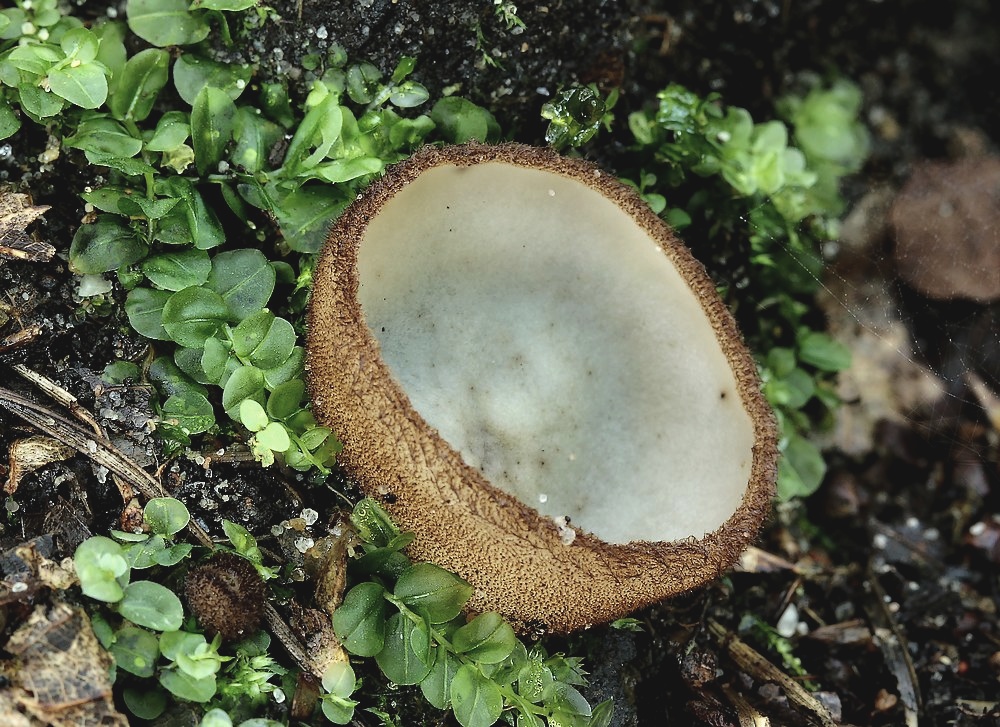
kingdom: Fungi
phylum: Ascomycota
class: Pezizomycetes
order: Pezizales
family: Pyronemataceae
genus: Humaria
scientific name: Humaria hemisphaerica
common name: halvkugleformet børstebæger
